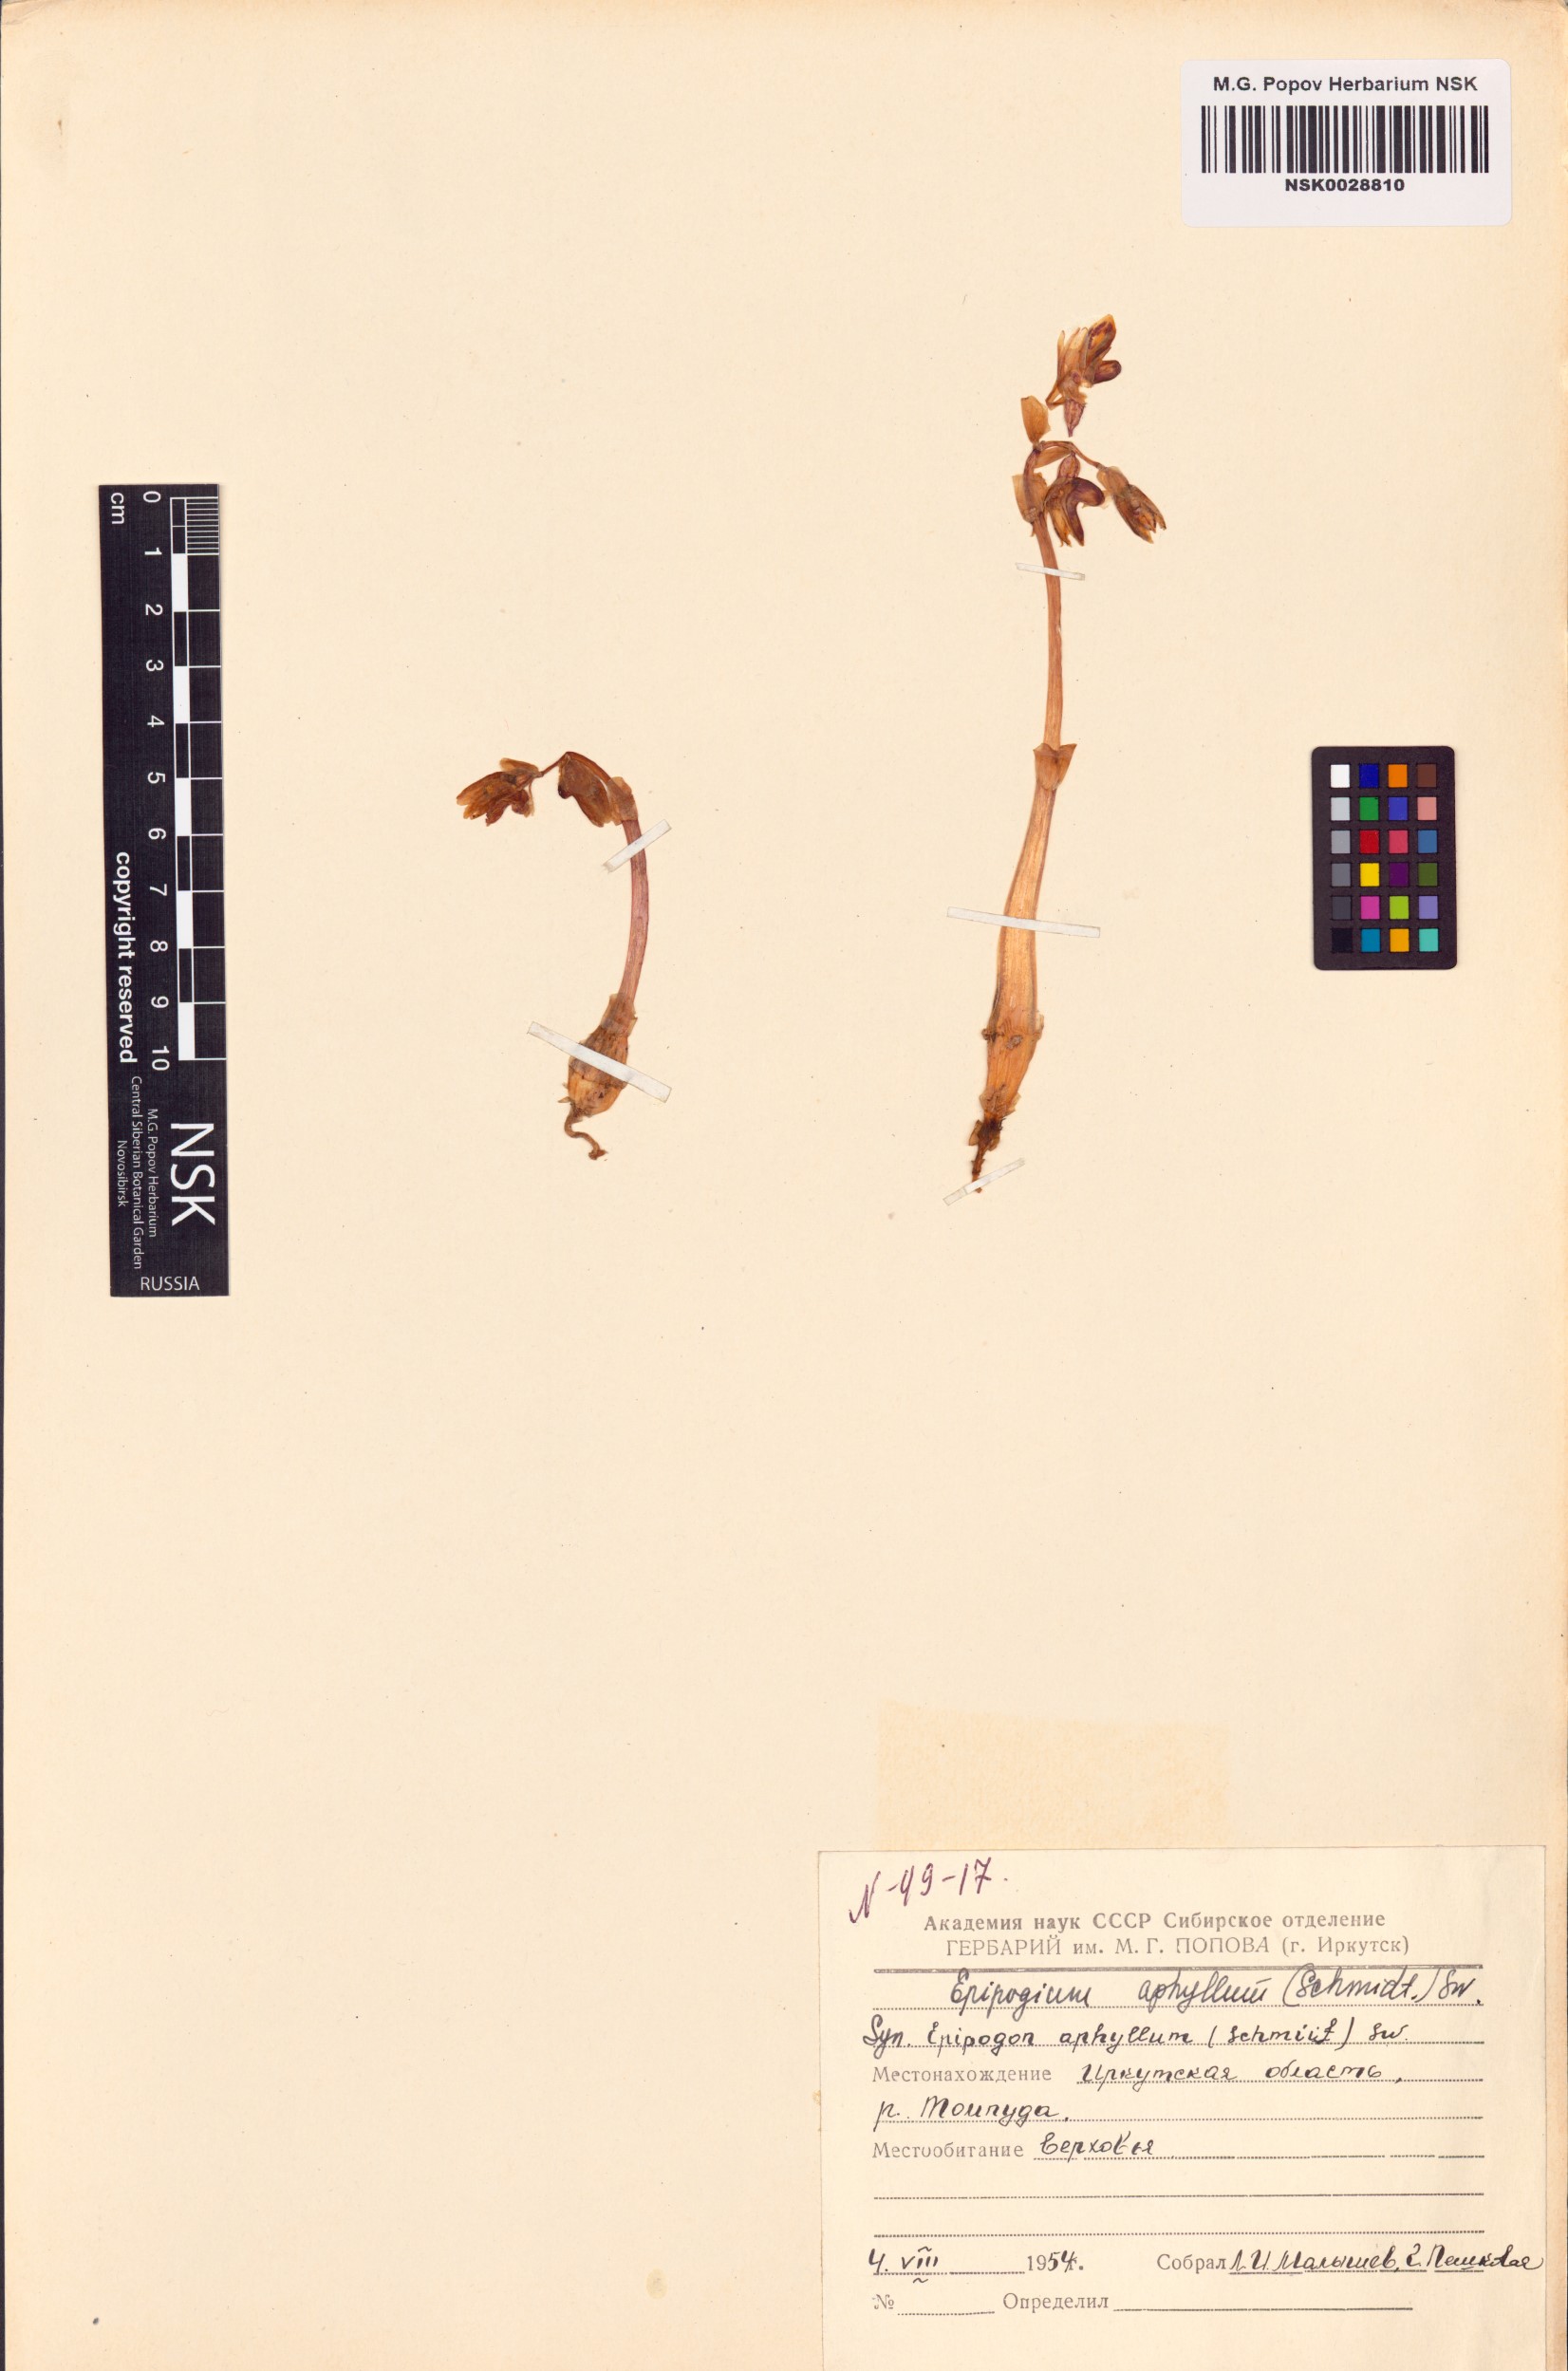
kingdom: Plantae
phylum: Tracheophyta
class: Liliopsida
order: Asparagales
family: Orchidaceae
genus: Epipogium
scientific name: Epipogium aphyllum
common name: Ghost orchid
